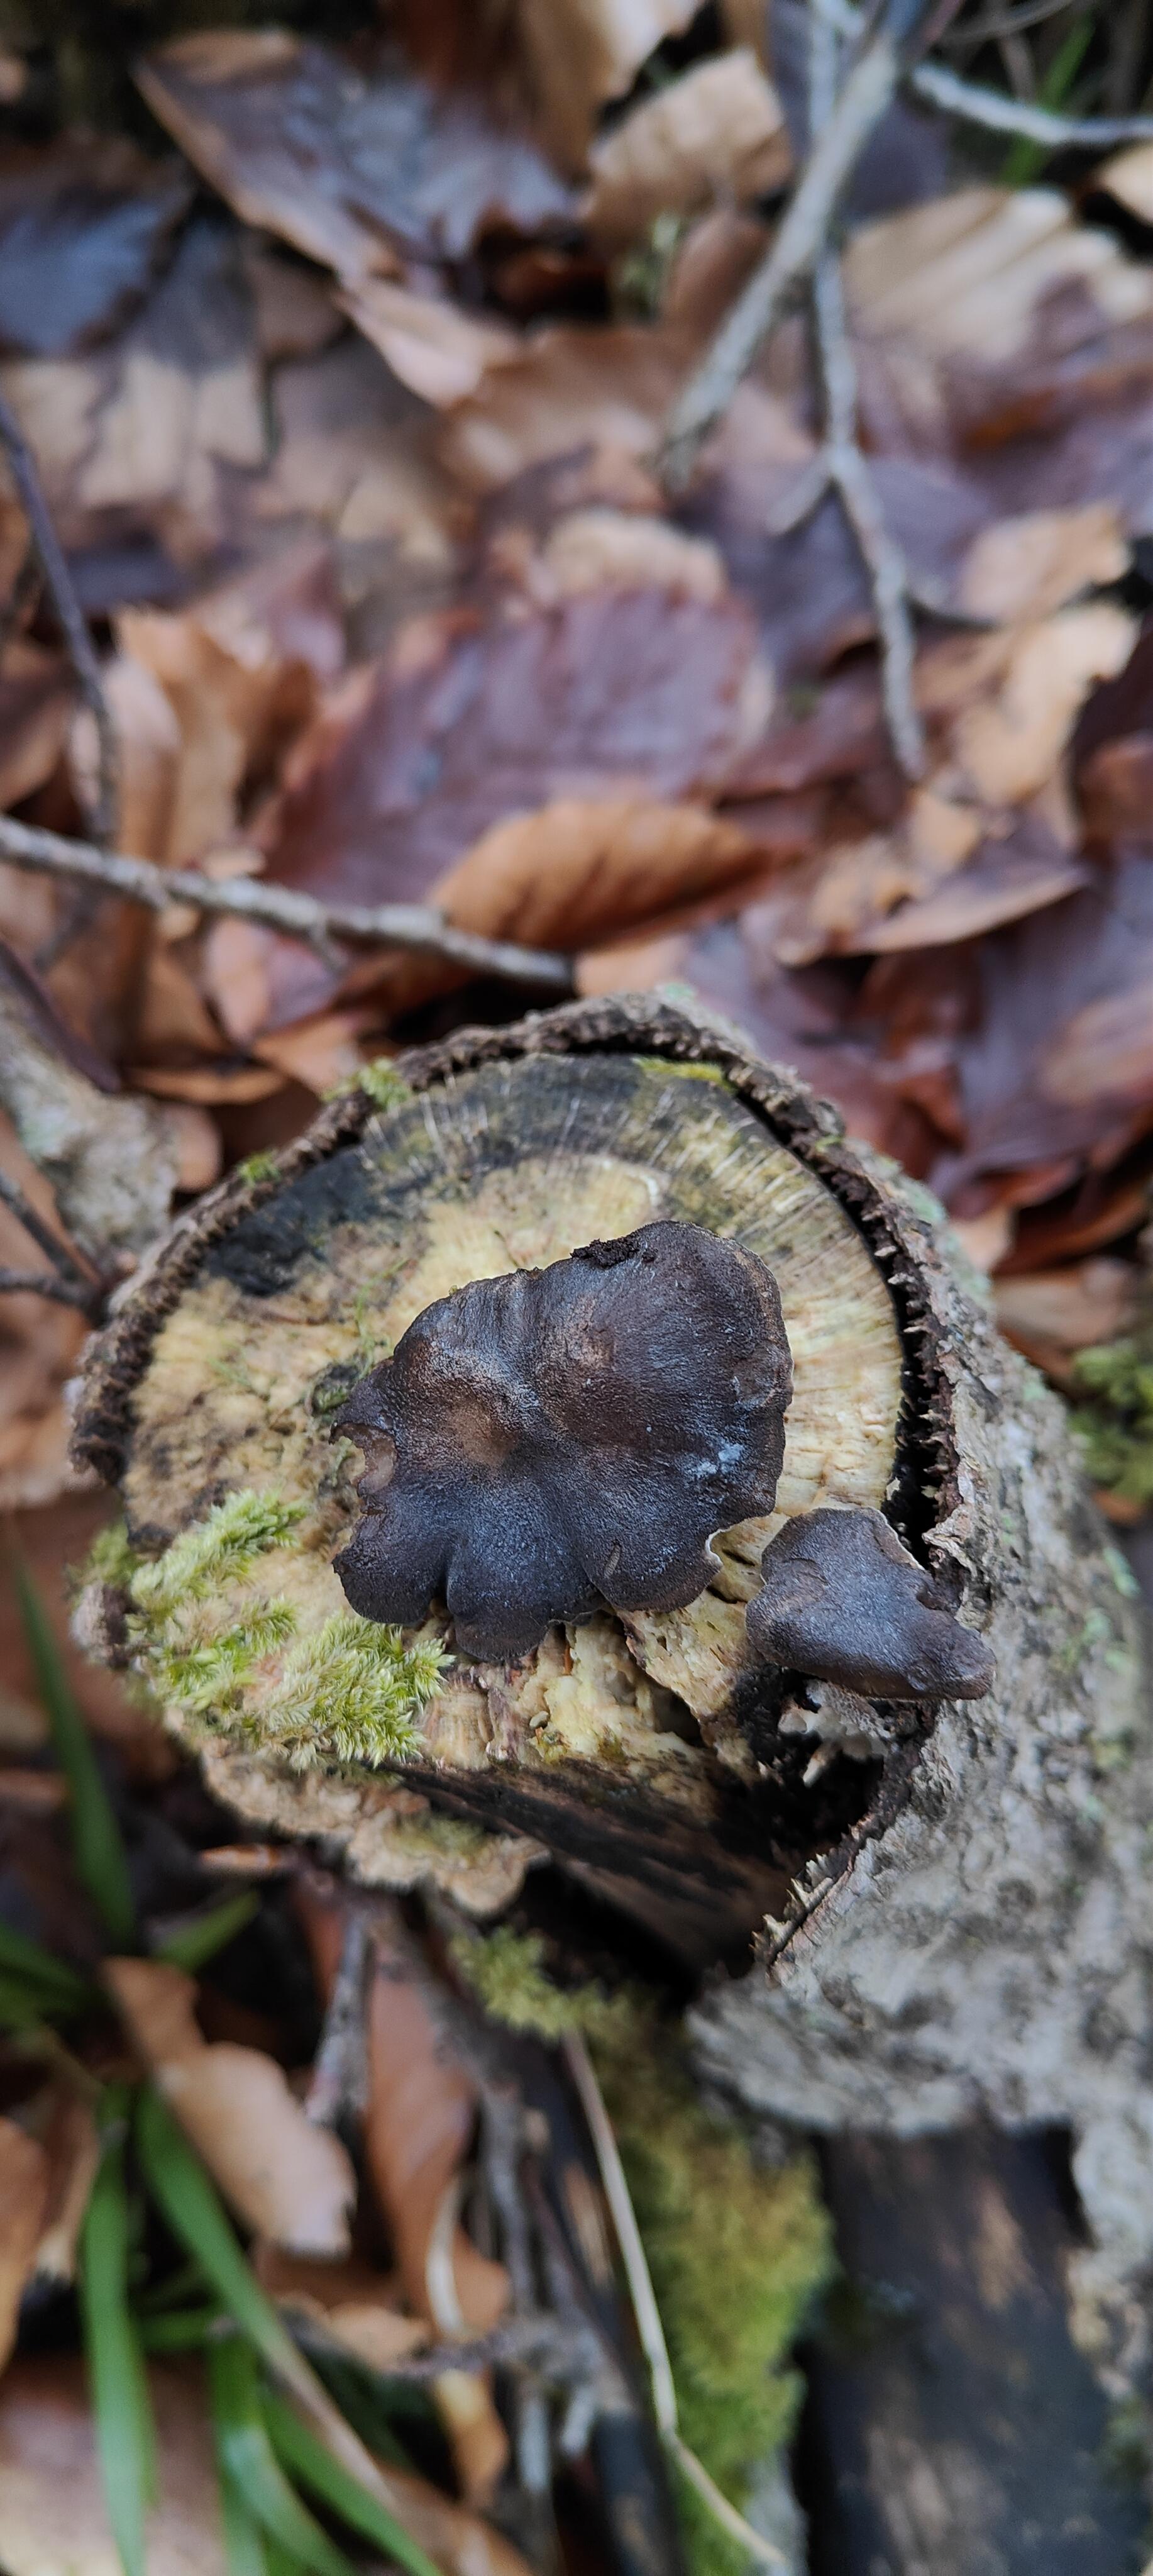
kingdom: Fungi
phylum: Basidiomycota
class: Agaricomycetes
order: Polyporales
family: Polyporaceae
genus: Lentinus
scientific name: Lentinus brumalis
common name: vinter-stilkporesvamp
